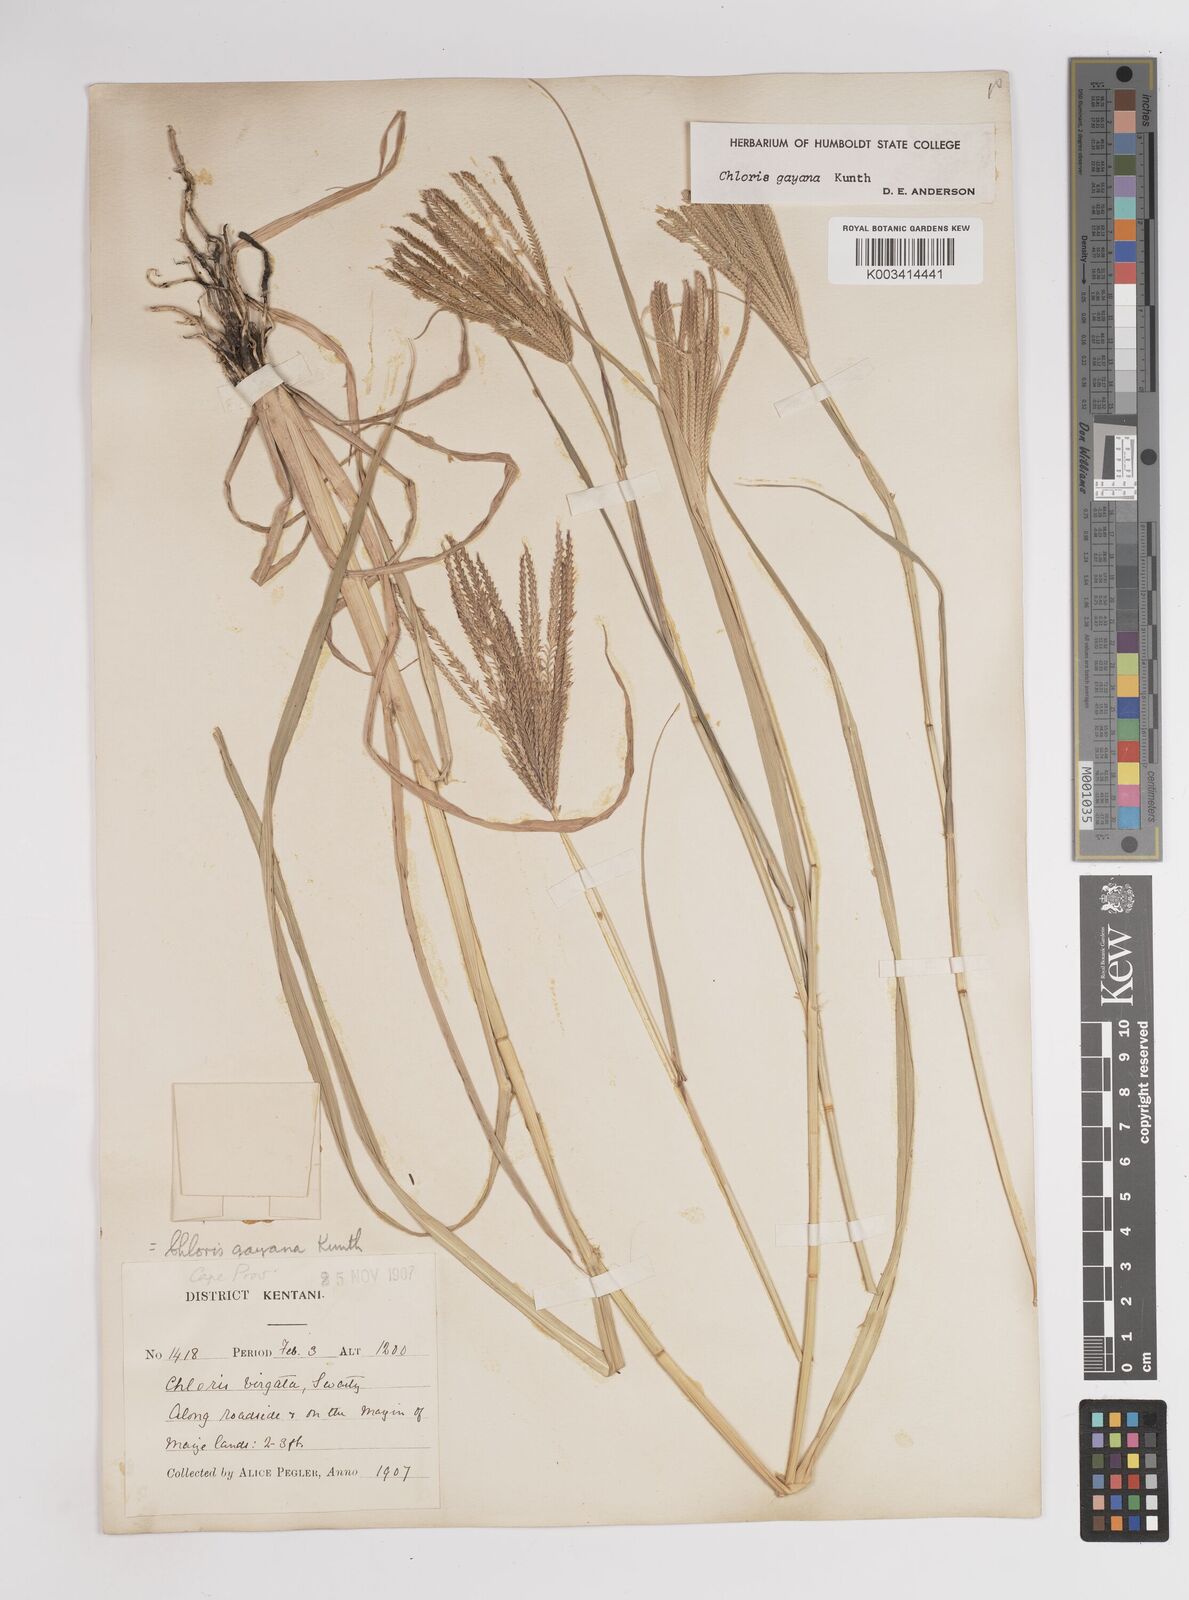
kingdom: Plantae
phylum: Tracheophyta
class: Liliopsida
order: Poales
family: Poaceae
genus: Chloris
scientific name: Chloris gayana
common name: Rhodes grass
